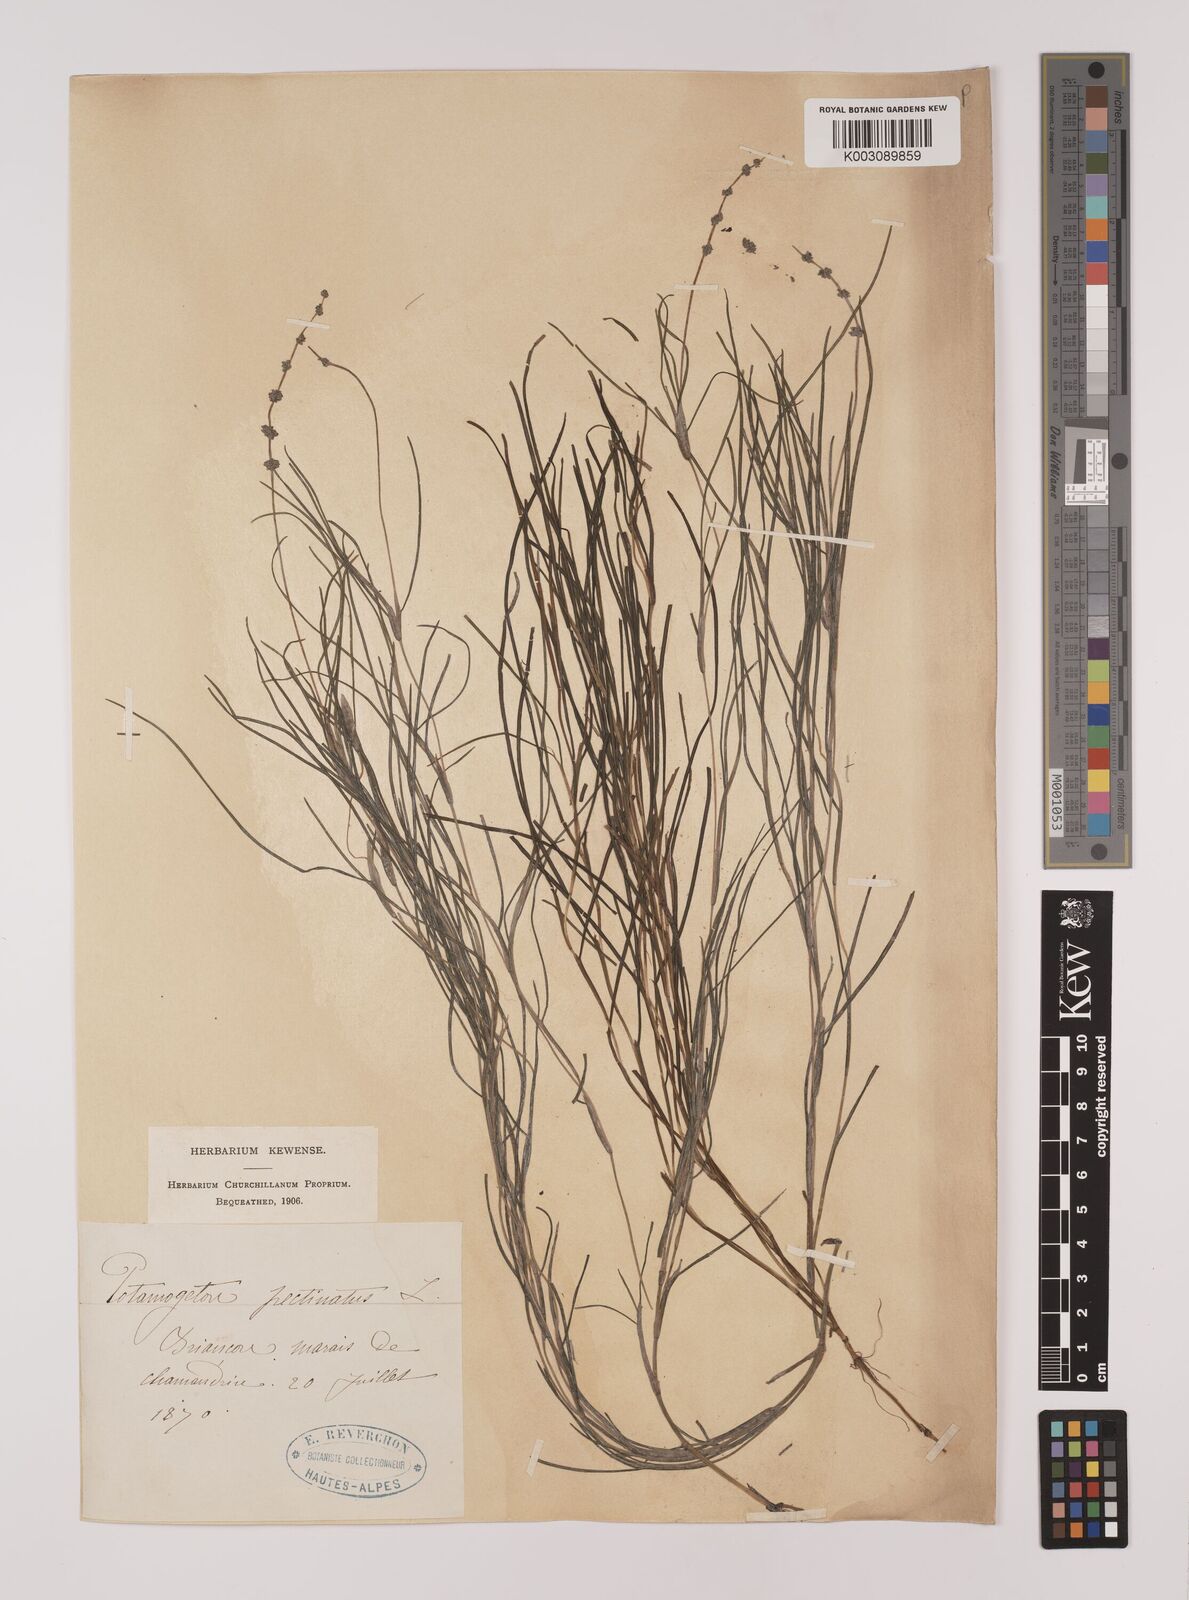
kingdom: Plantae
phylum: Tracheophyta
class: Liliopsida
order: Alismatales
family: Potamogetonaceae
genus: Stuckenia
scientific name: Stuckenia pectinata
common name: Sago pondweed
